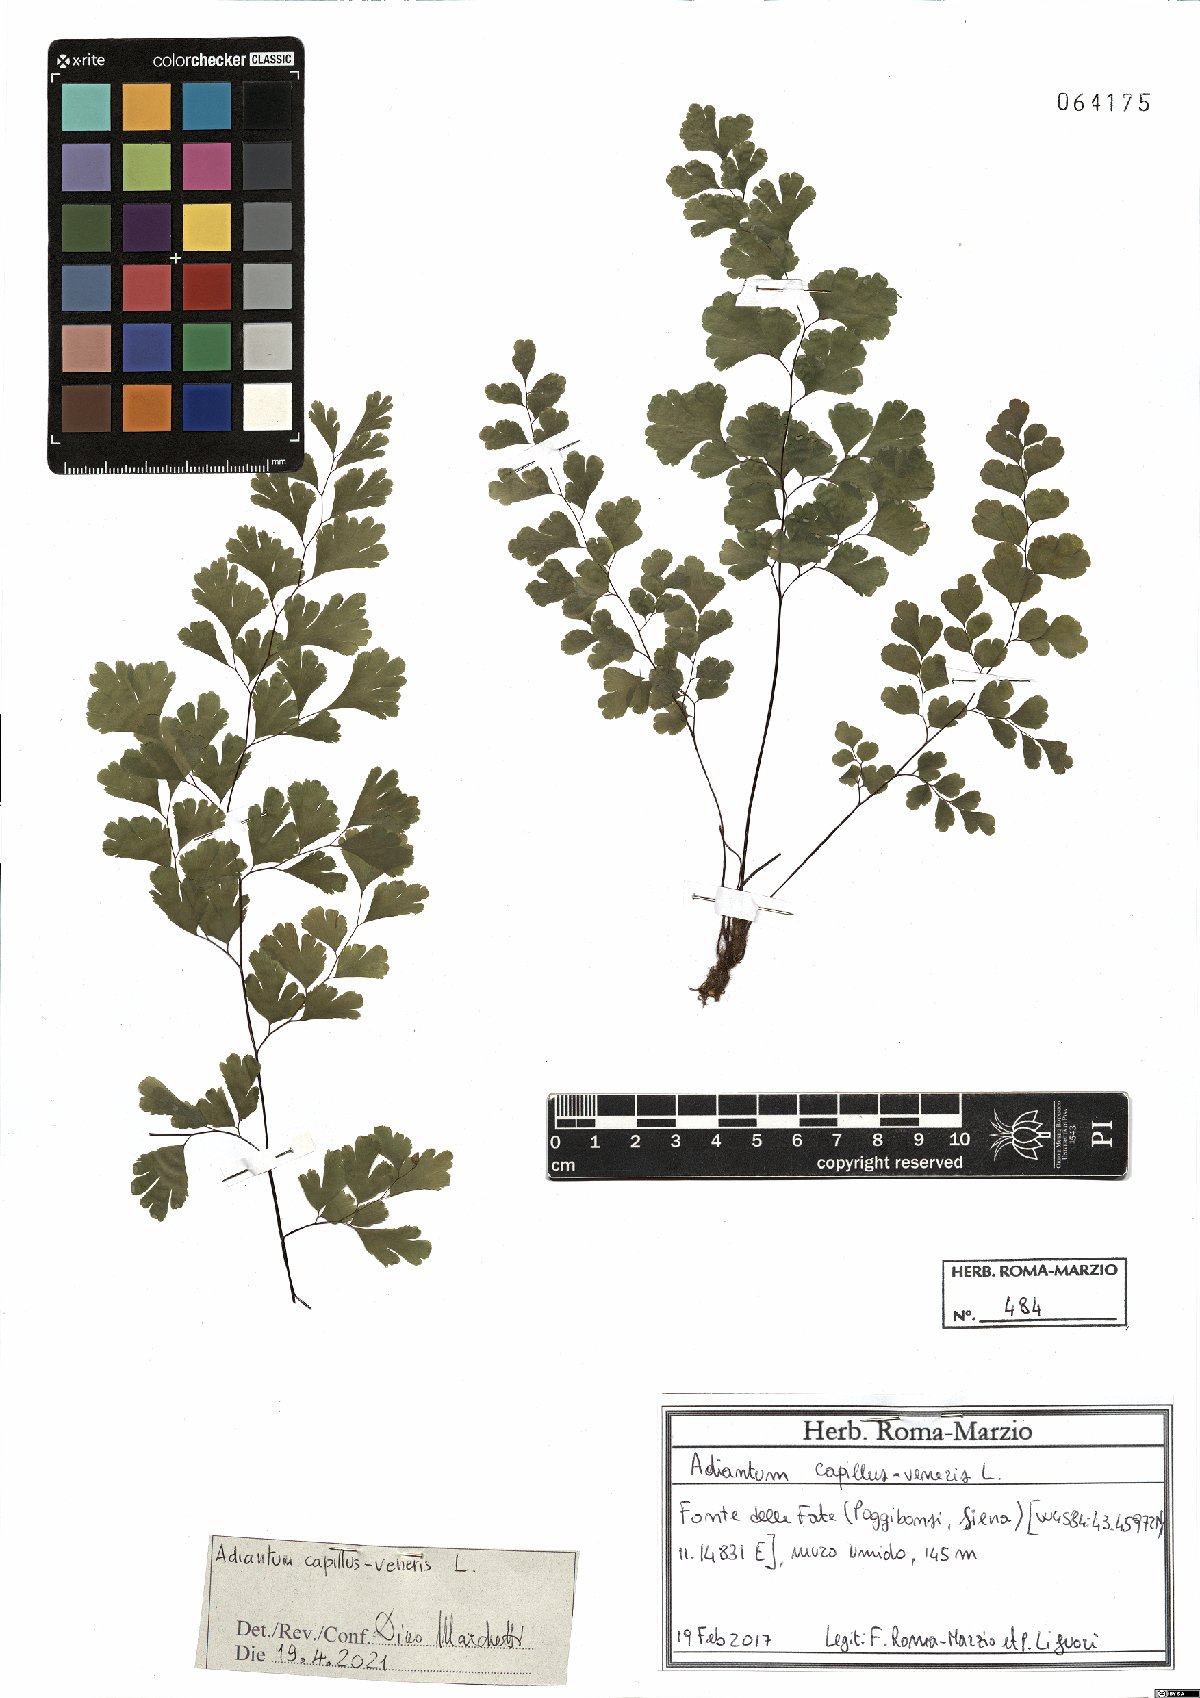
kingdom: Plantae
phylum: Tracheophyta
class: Polypodiopsida
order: Polypodiales
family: Pteridaceae
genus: Adiantum
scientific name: Adiantum capillus-veneris
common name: Maidenhair fern
